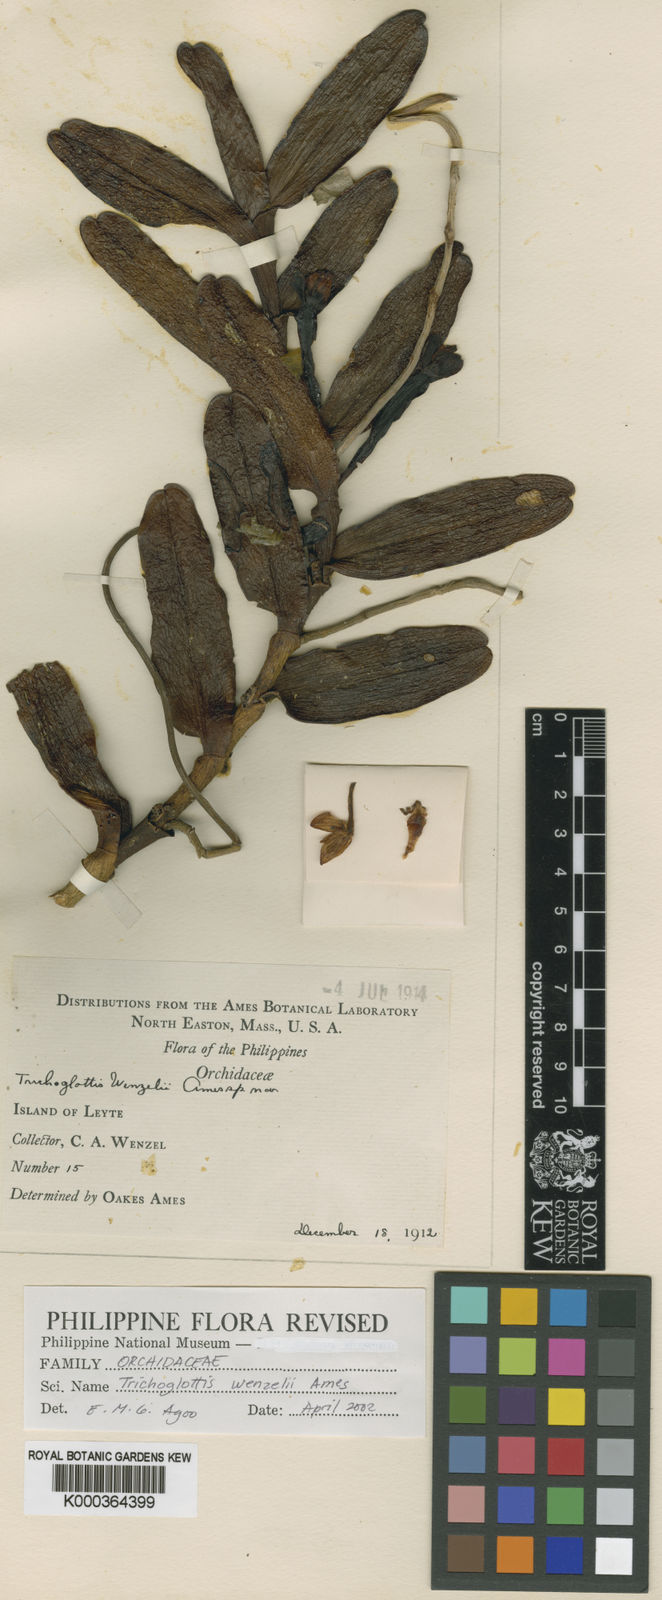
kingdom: Plantae
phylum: Tracheophyta
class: Liliopsida
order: Asparagales
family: Orchidaceae
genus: Trichoglottis
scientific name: Trichoglottis geminata
